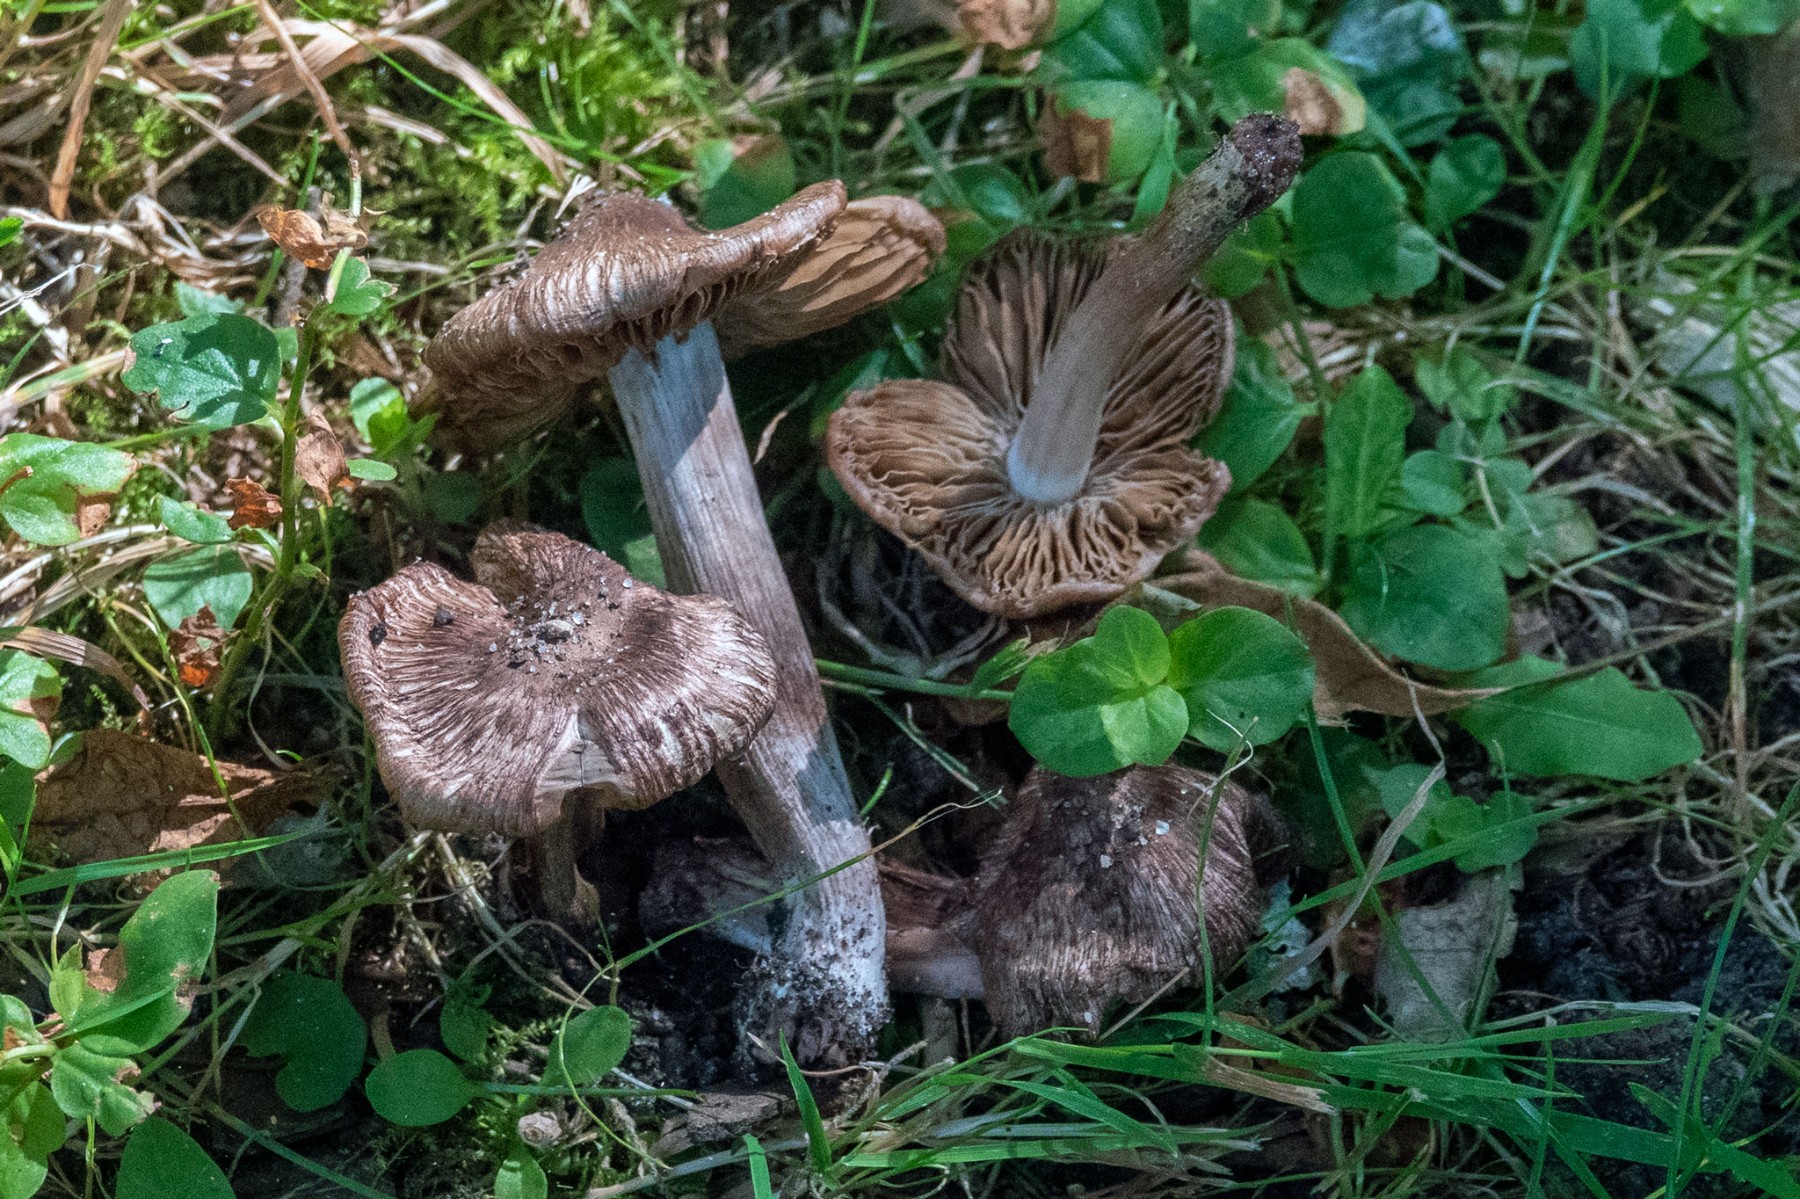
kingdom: Fungi
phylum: Basidiomycota
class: Agaricomycetes
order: Agaricales
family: Inocybaceae
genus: Inosperma
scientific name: Inosperma adaequatum
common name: vinrød trævlhat
